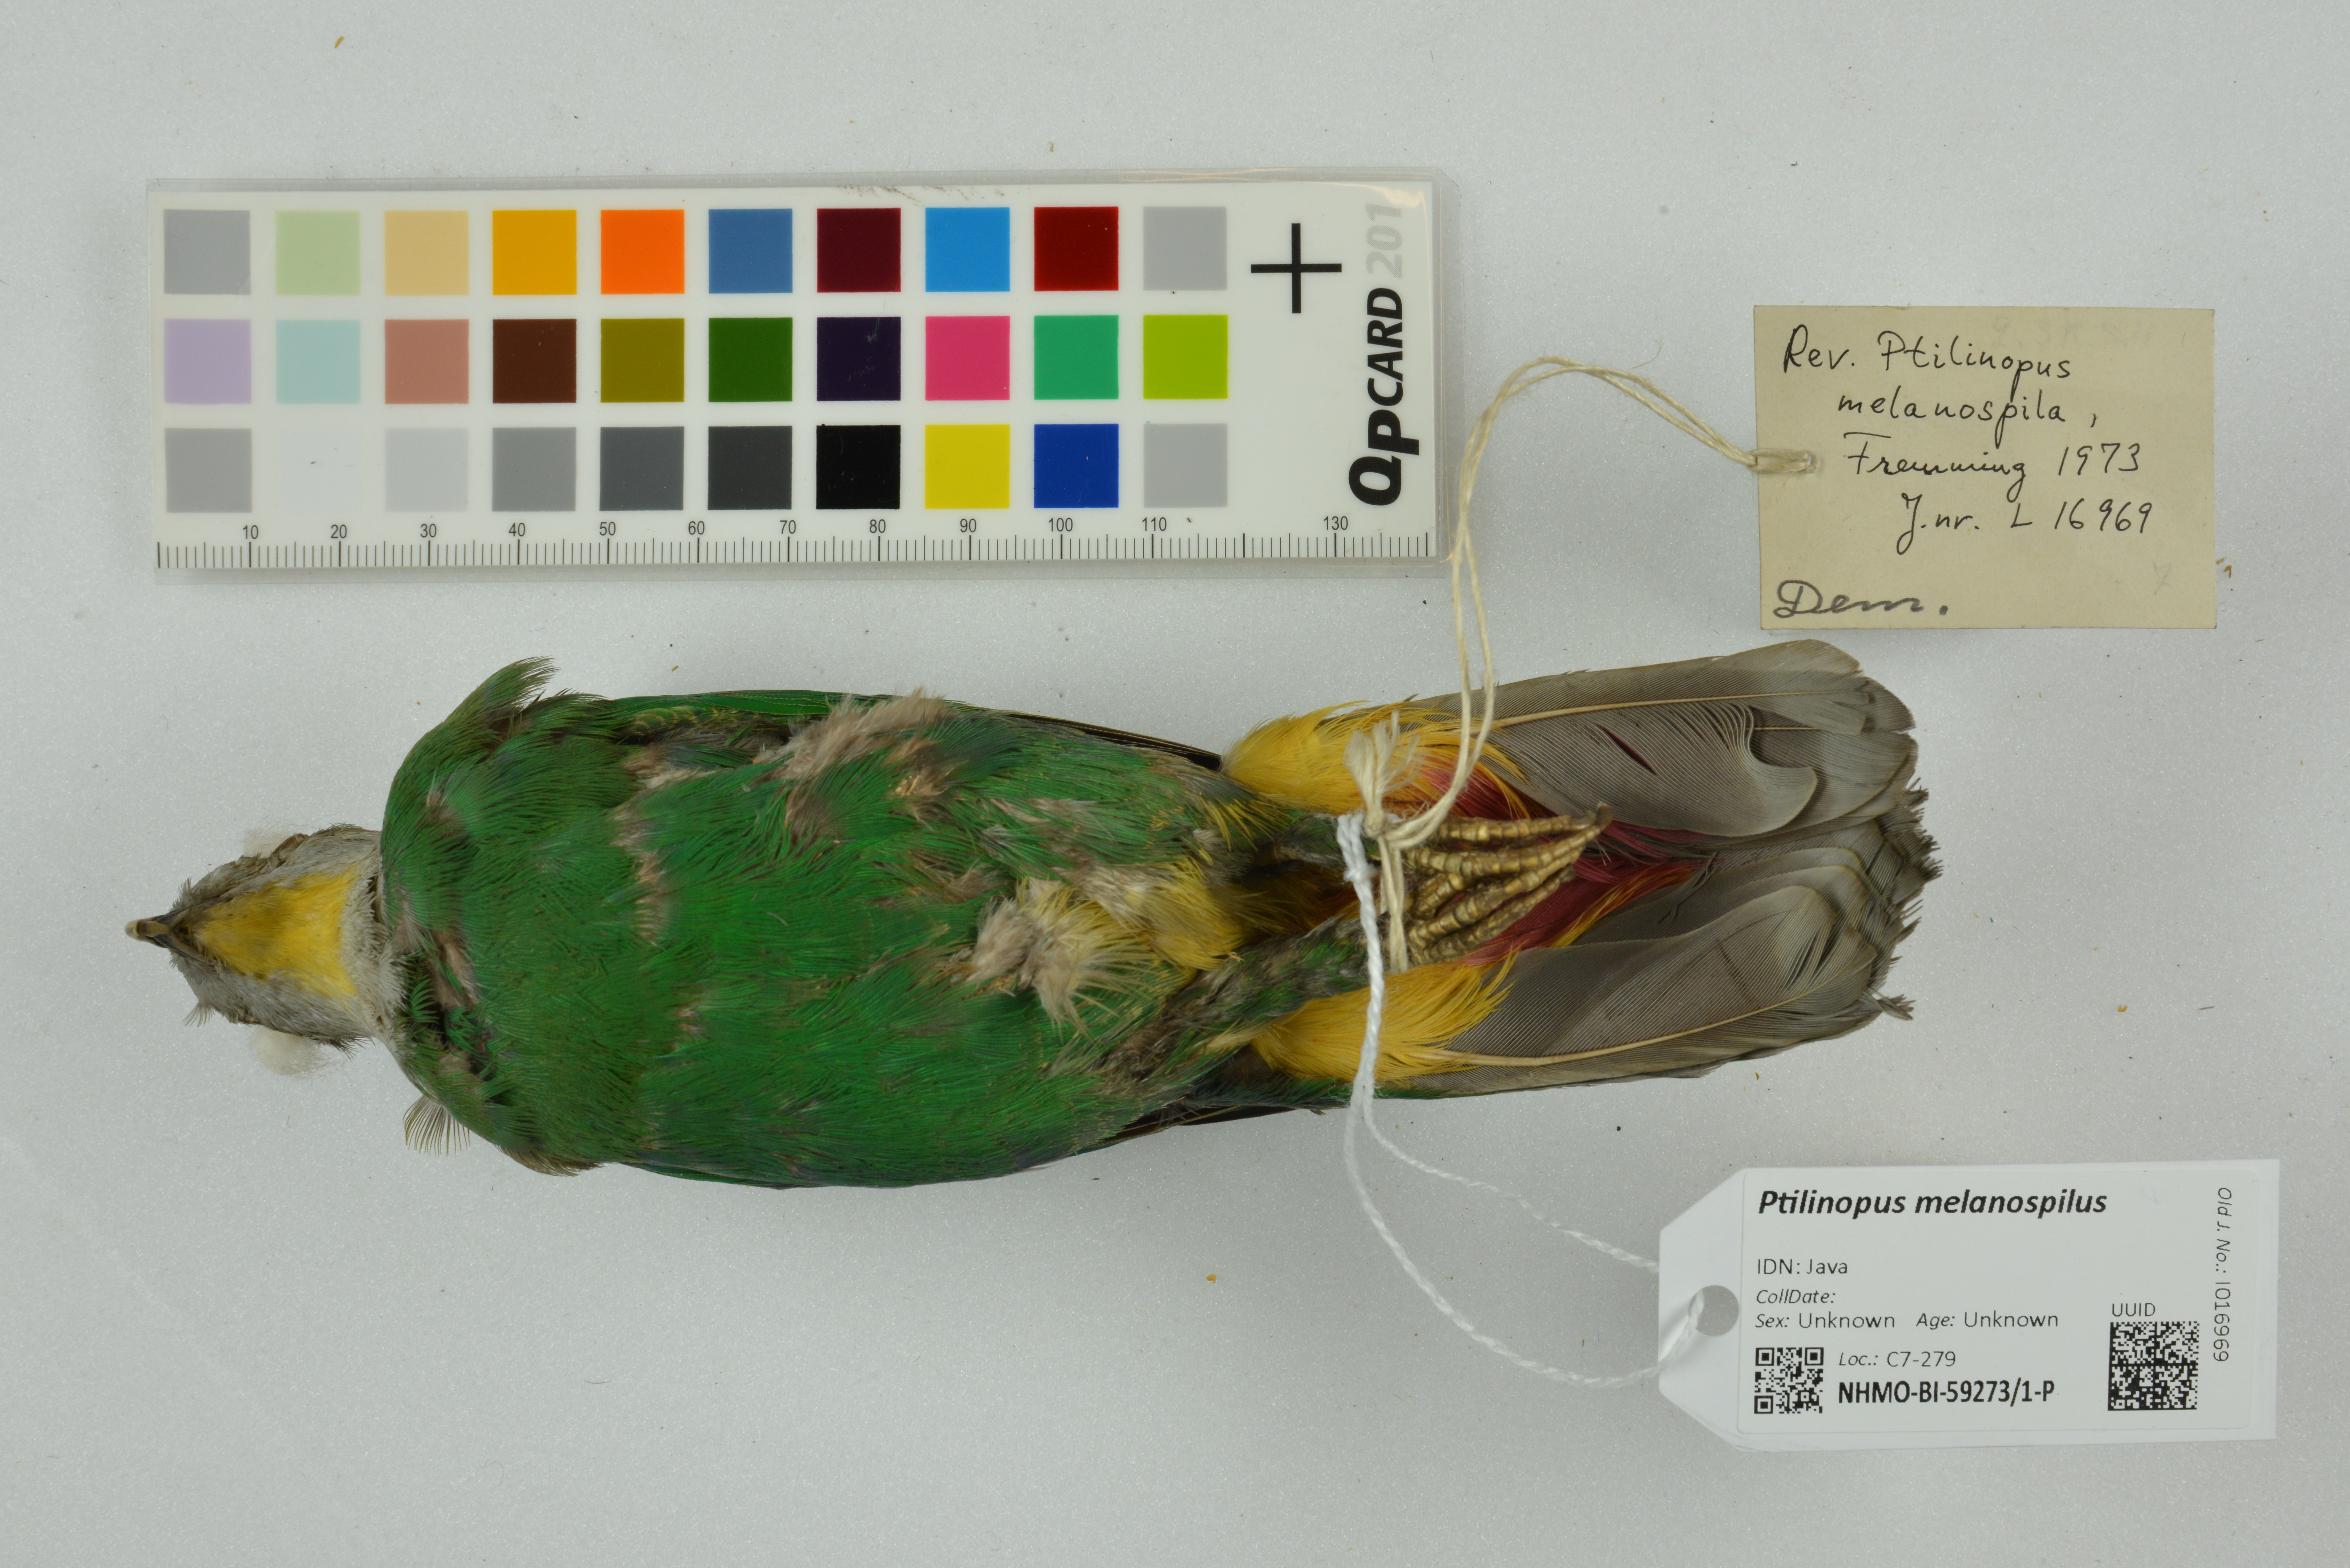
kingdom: Animalia
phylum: Chordata
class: Aves
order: Columbiformes
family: Columbidae
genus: Ptilinopus
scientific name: Ptilinopus melanospilus
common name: Black-naped fruit dove
